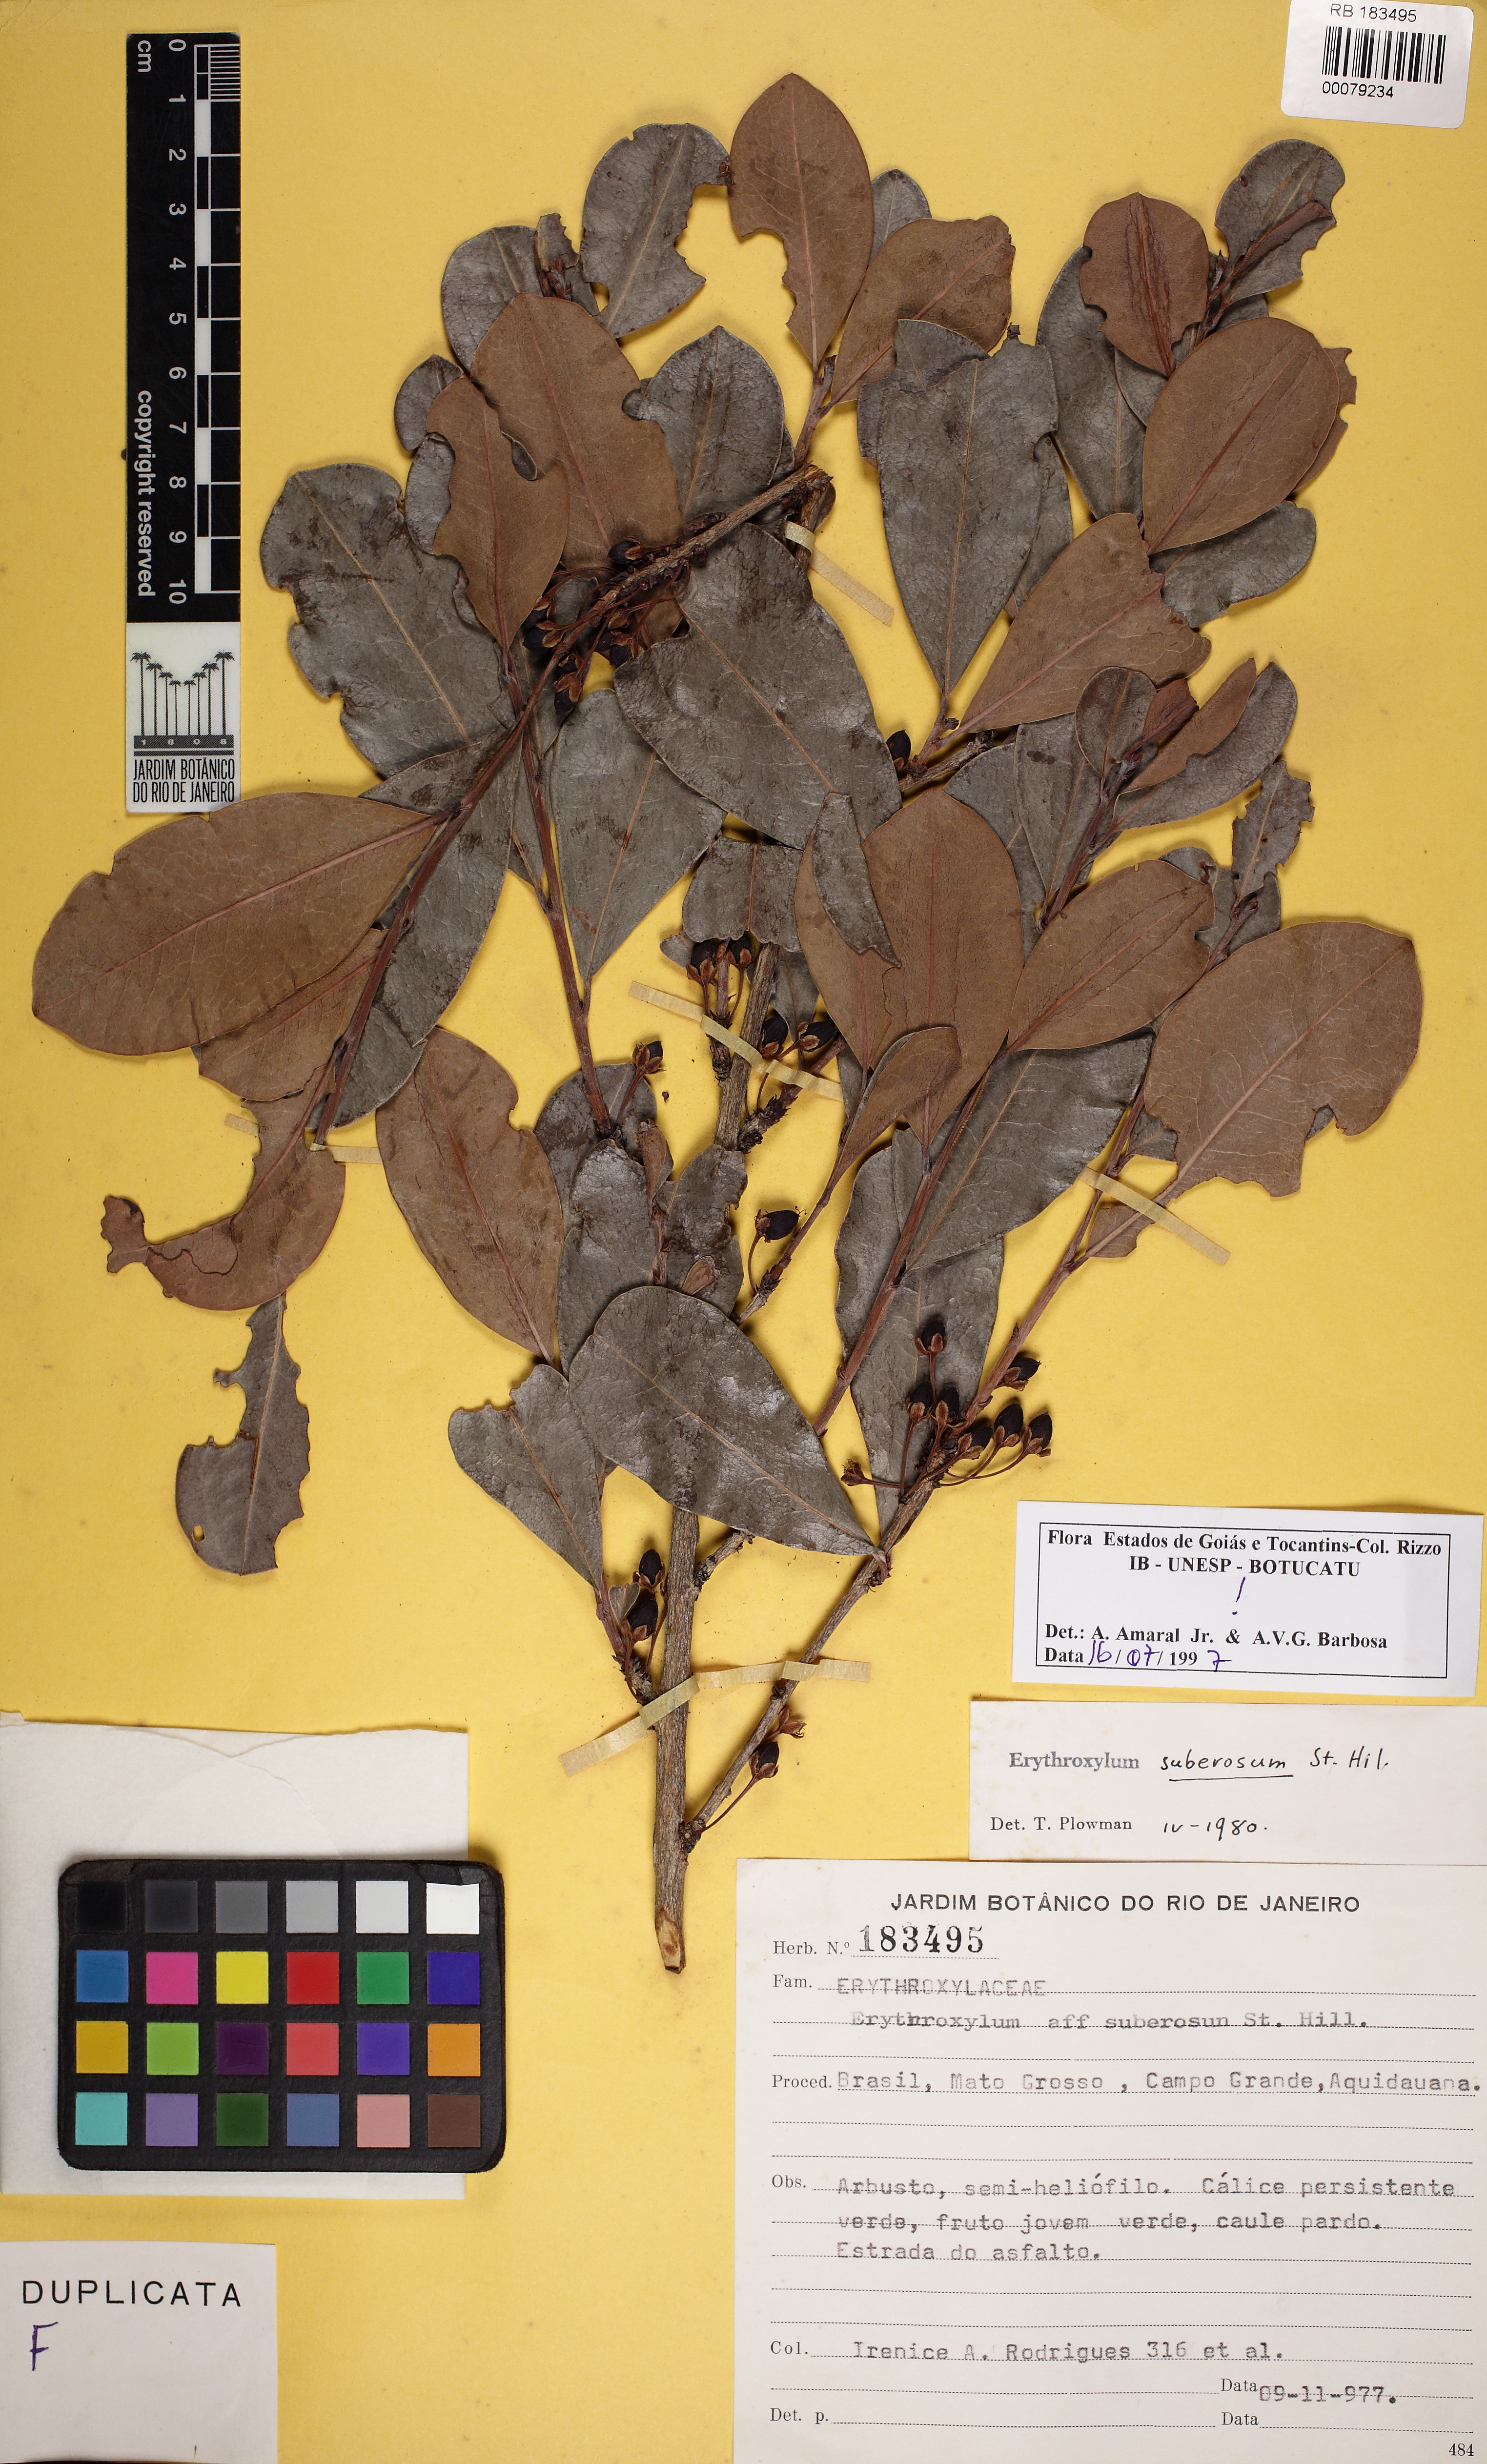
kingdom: Plantae
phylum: Tracheophyta
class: Magnoliopsida
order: Malpighiales
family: Erythroxylaceae
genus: Erythroxylum
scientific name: Erythroxylum suberosum
